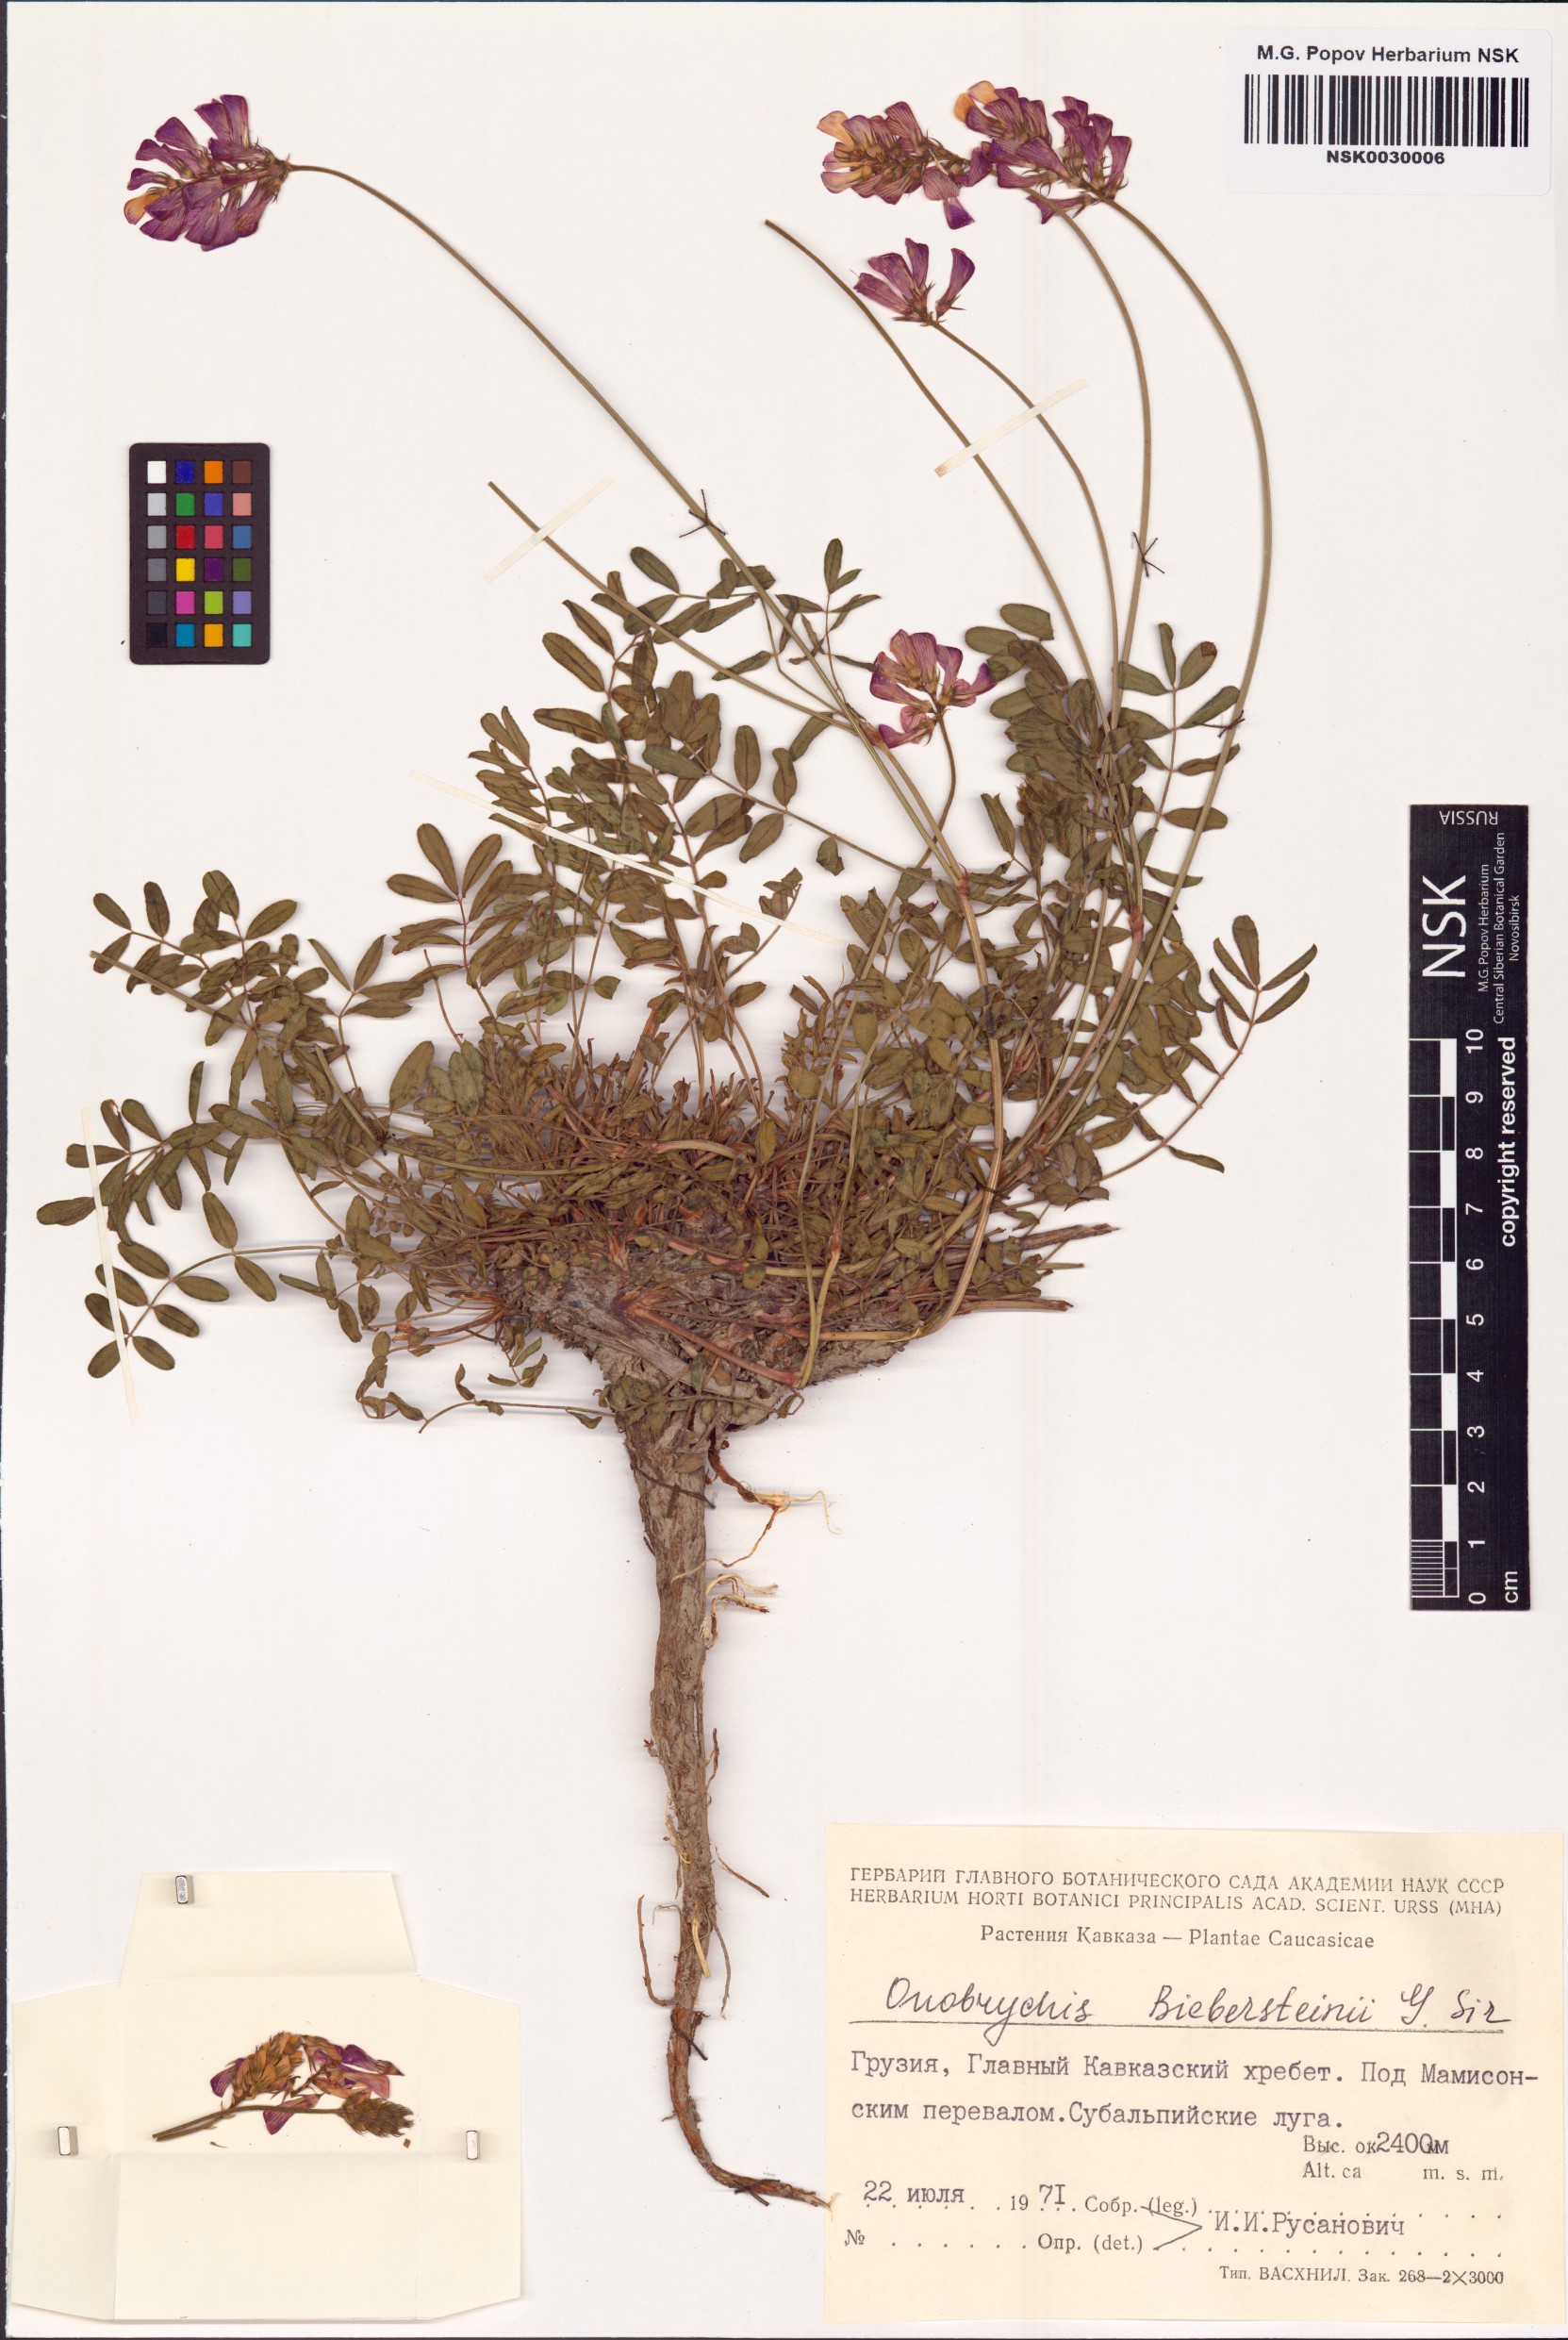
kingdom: Plantae
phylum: Tracheophyta
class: Magnoliopsida
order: Fabales
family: Fabaceae
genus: Onobrychis
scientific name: Onobrychis biebersteinii
